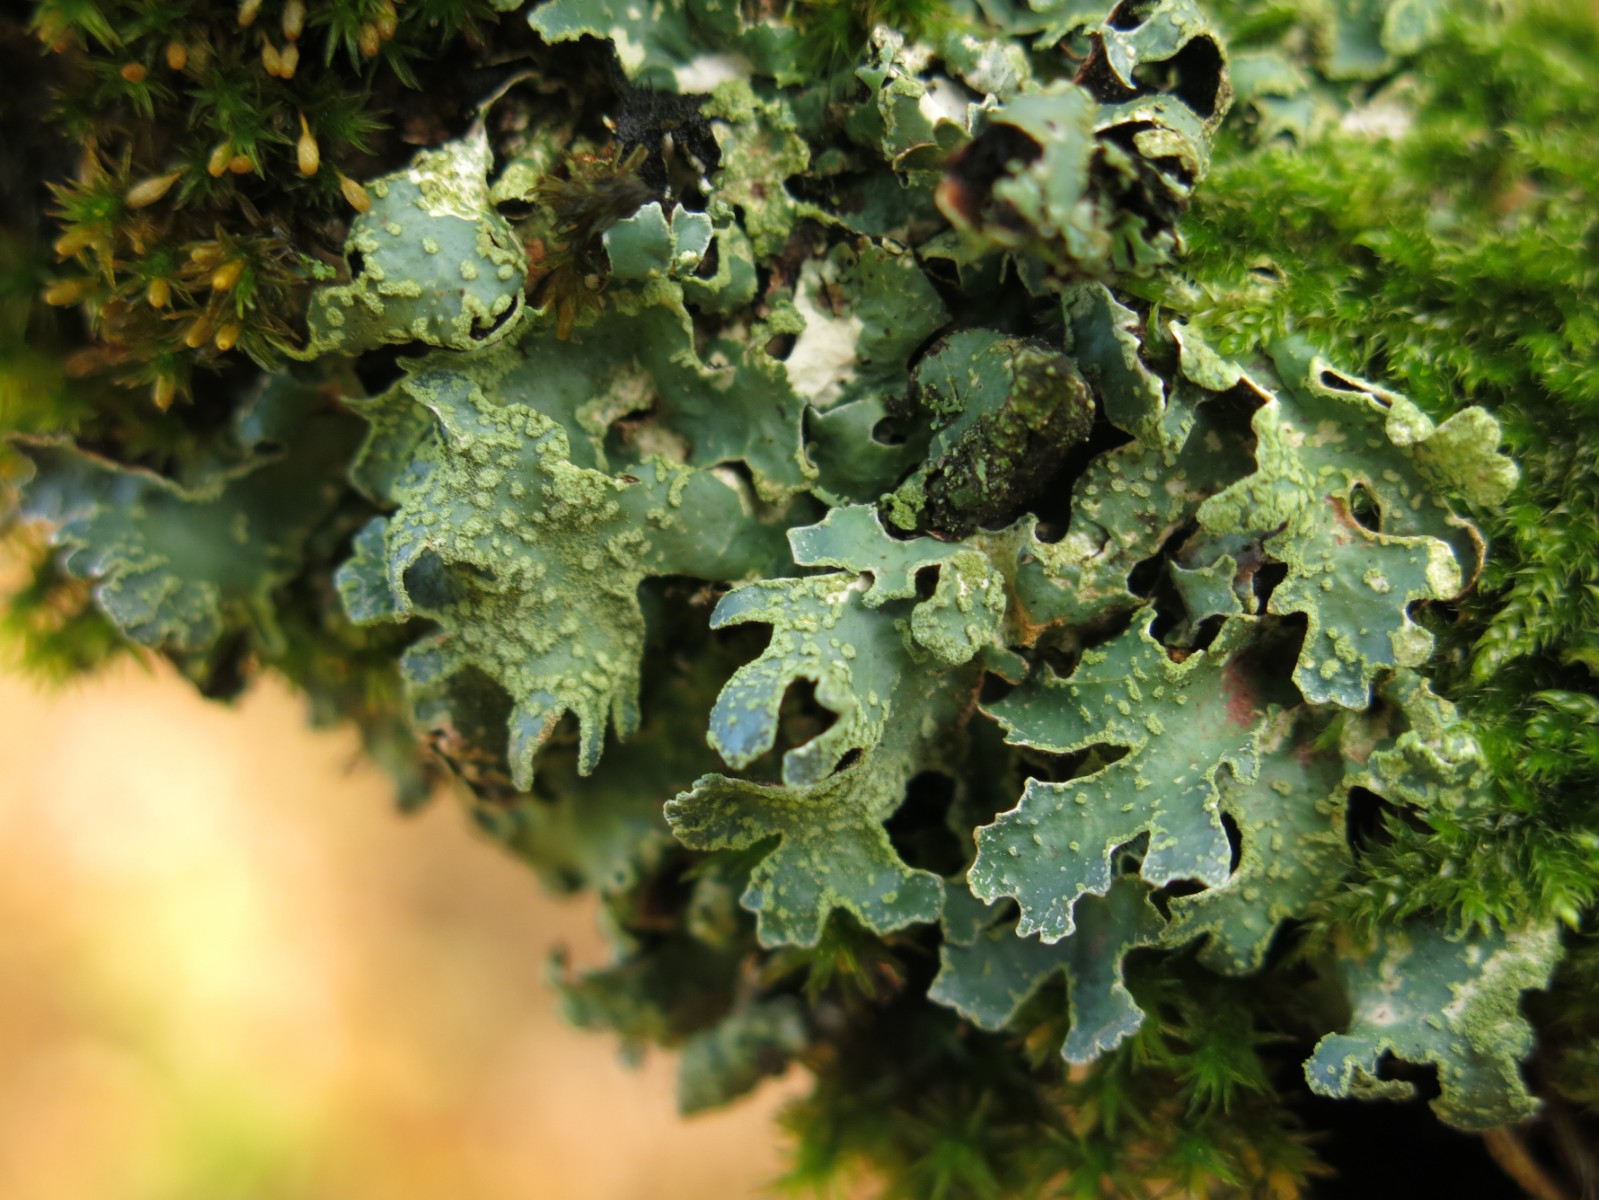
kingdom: Fungi
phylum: Ascomycota
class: Lecanoromycetes
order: Lecanorales
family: Parmeliaceae
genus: Parmelia
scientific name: Parmelia sulcata
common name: rynket skållav
